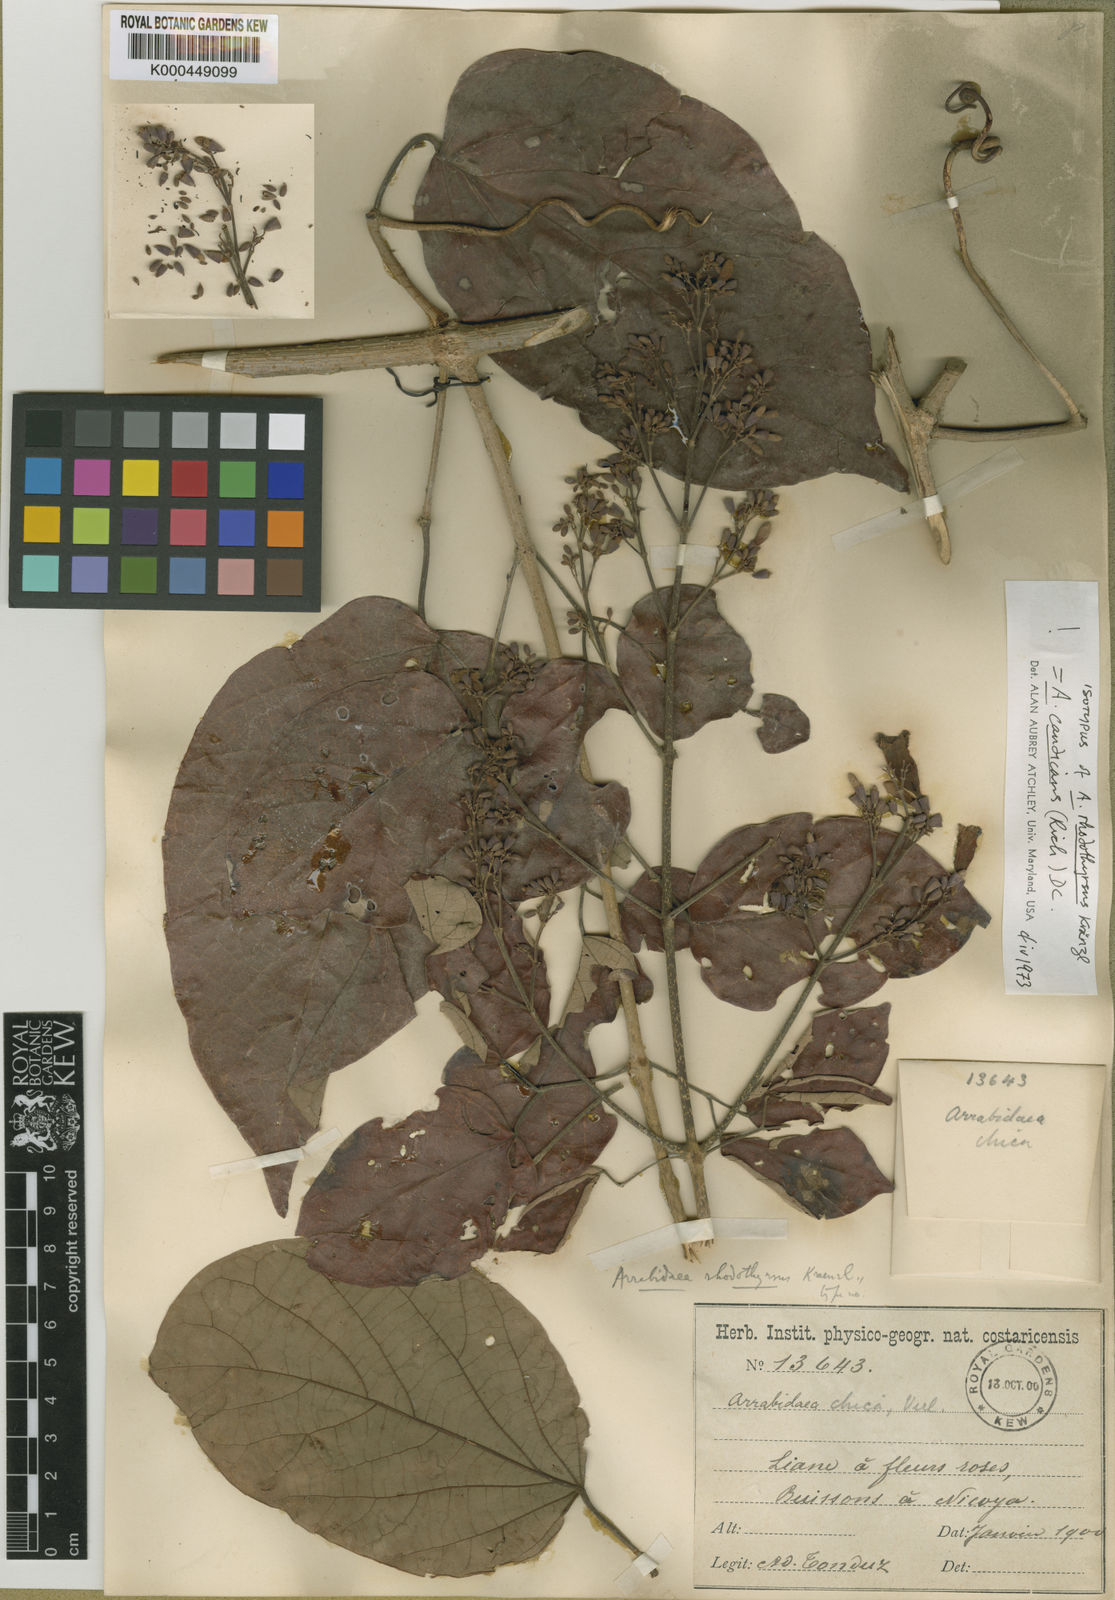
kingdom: Plantae
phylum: Tracheophyta
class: Magnoliopsida
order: Lamiales
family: Bignoniaceae
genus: Fridericia
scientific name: Fridericia candicans
